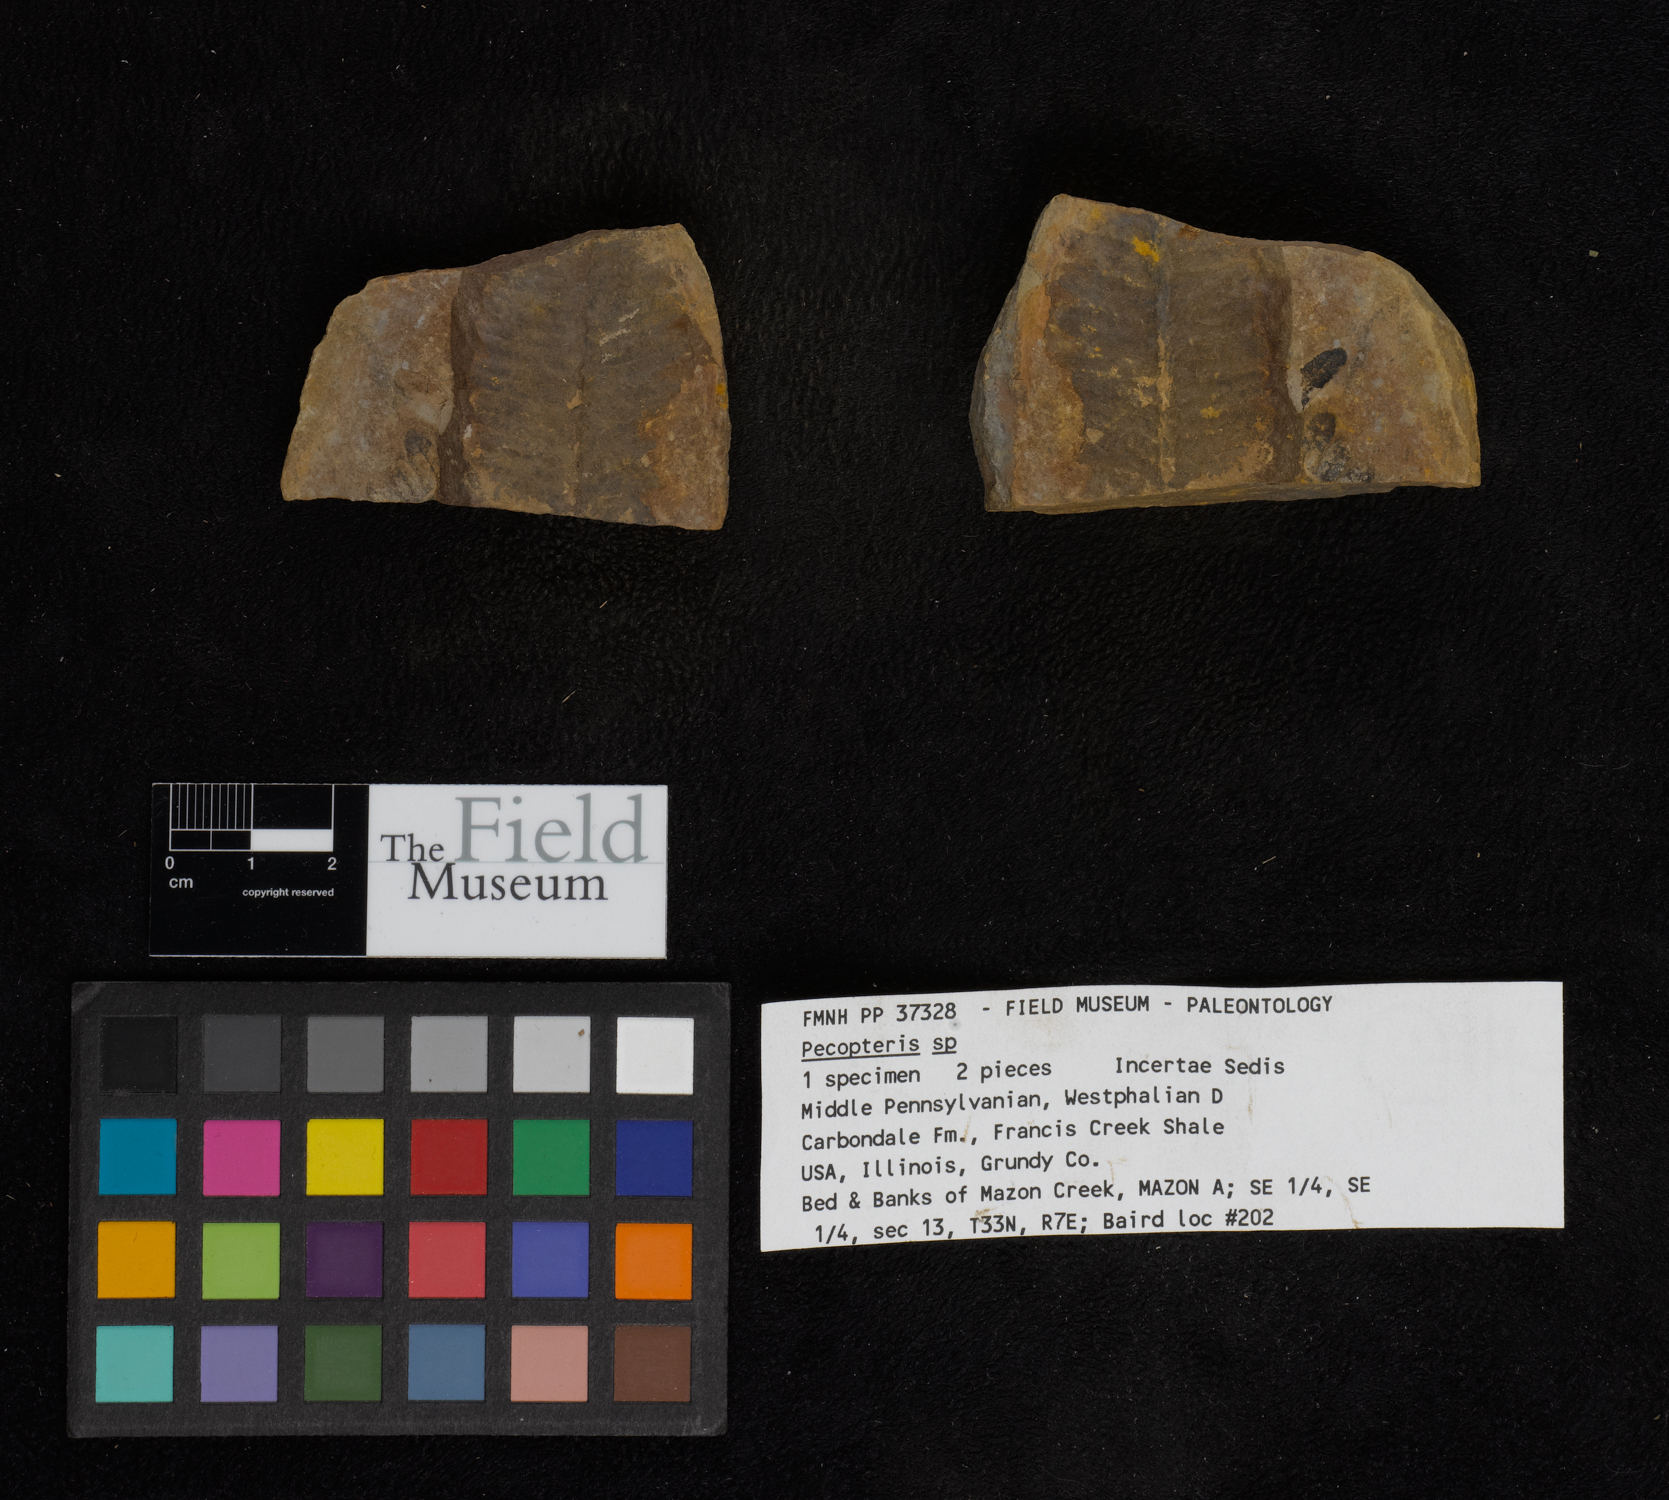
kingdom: Plantae
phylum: Tracheophyta
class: Polypodiopsida
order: Marattiales
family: Asterothecaceae
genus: Pecopteris
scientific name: Pecopteris
